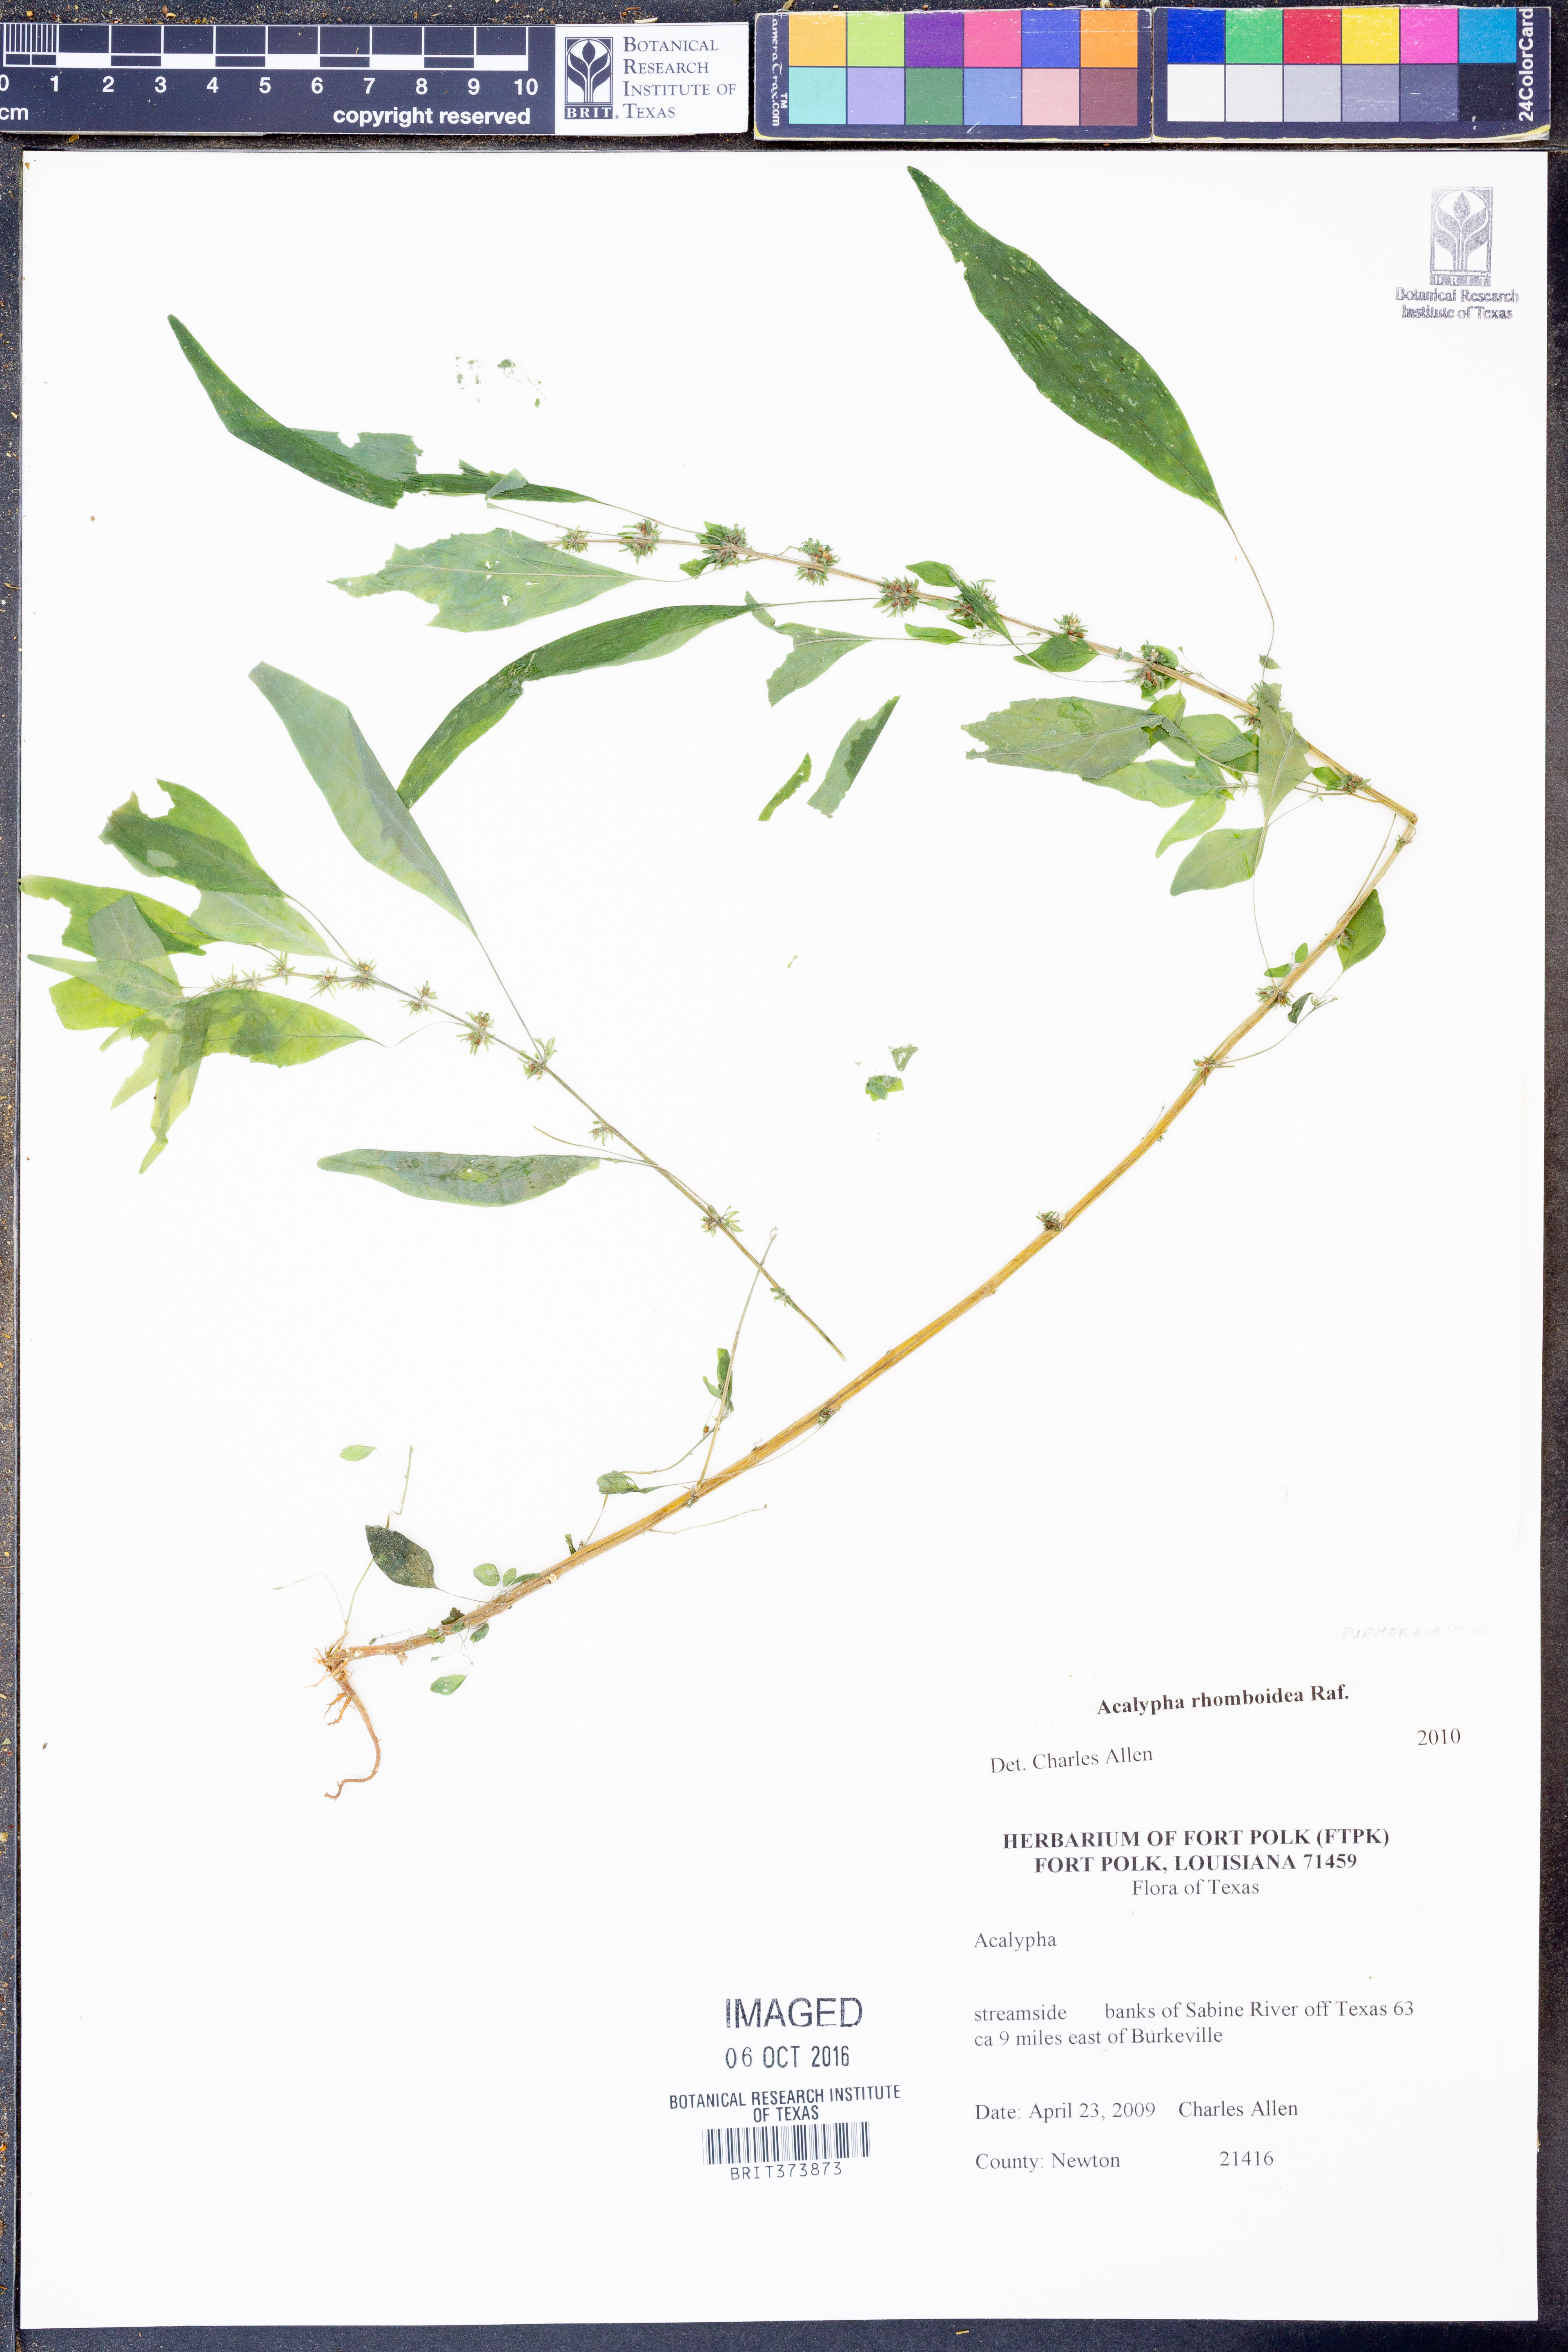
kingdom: Plantae
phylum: Tracheophyta
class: Magnoliopsida
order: Malpighiales
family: Euphorbiaceae
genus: Acalypha
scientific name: Acalypha rhomboidea
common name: Rhombic copperleaf
